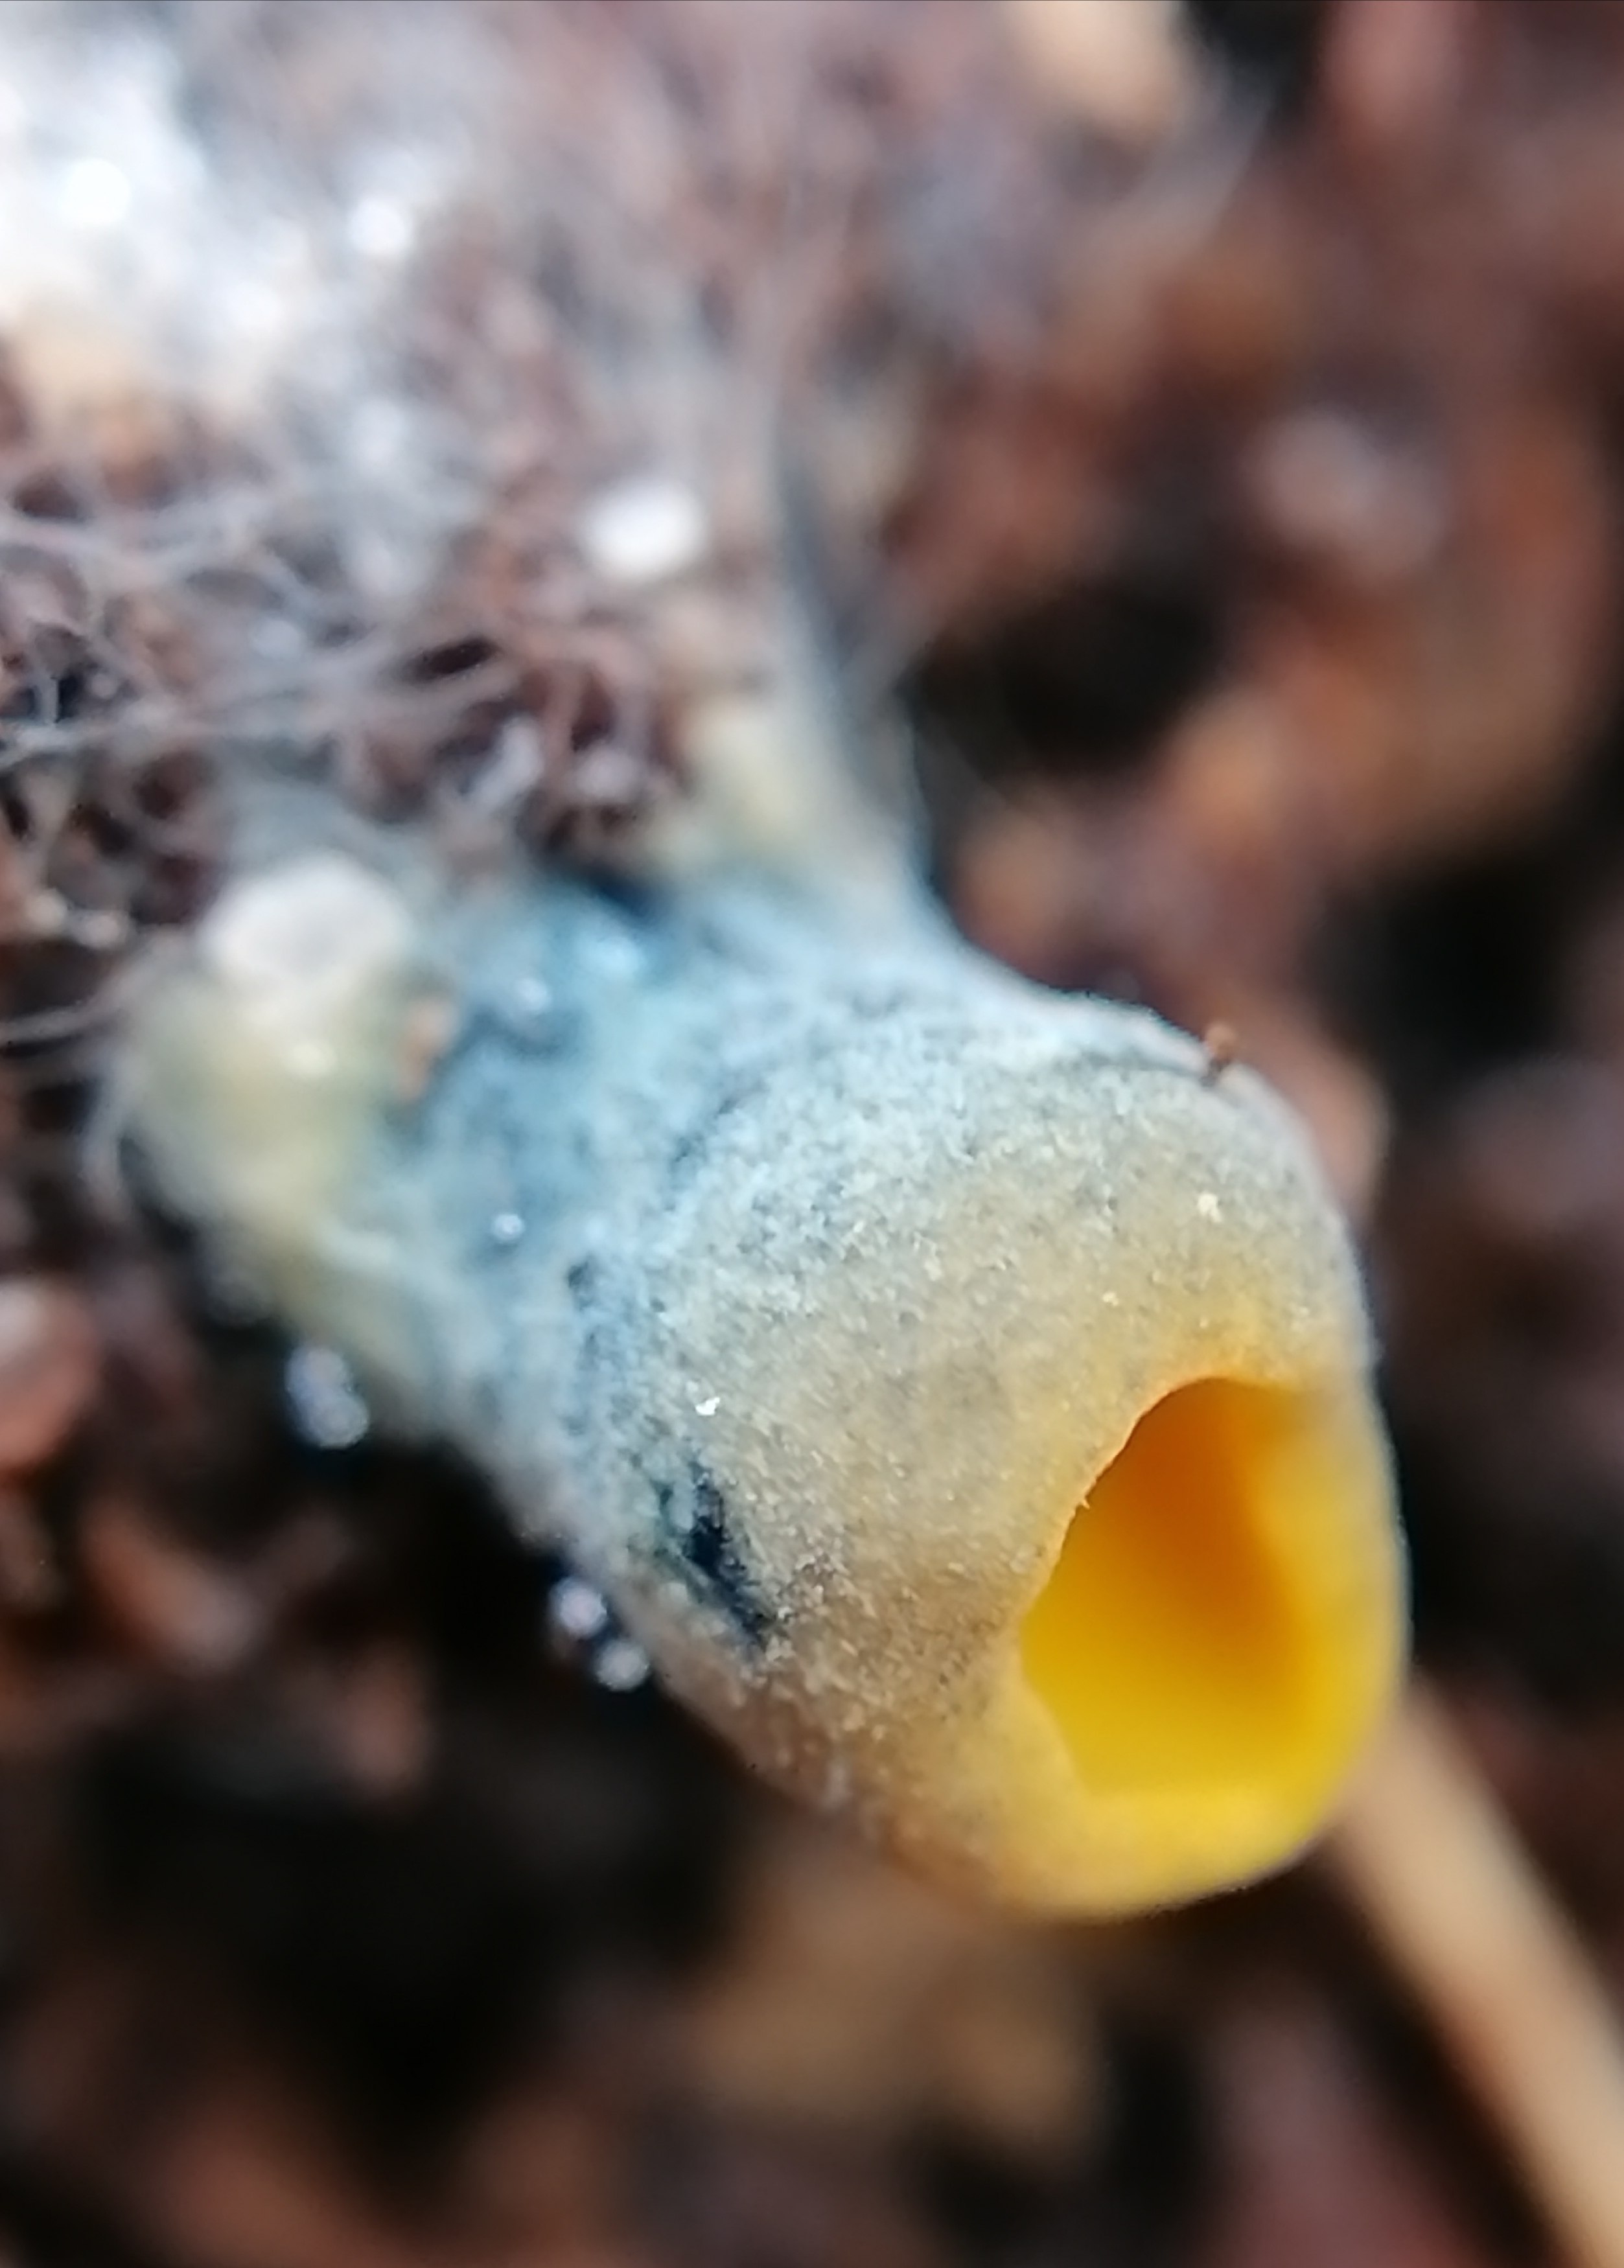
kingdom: Fungi
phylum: Ascomycota
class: Pezizomycetes
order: Pezizales
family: Caloscyphaceae
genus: Caloscypha
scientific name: Caloscypha fulgens
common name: jadebæger
